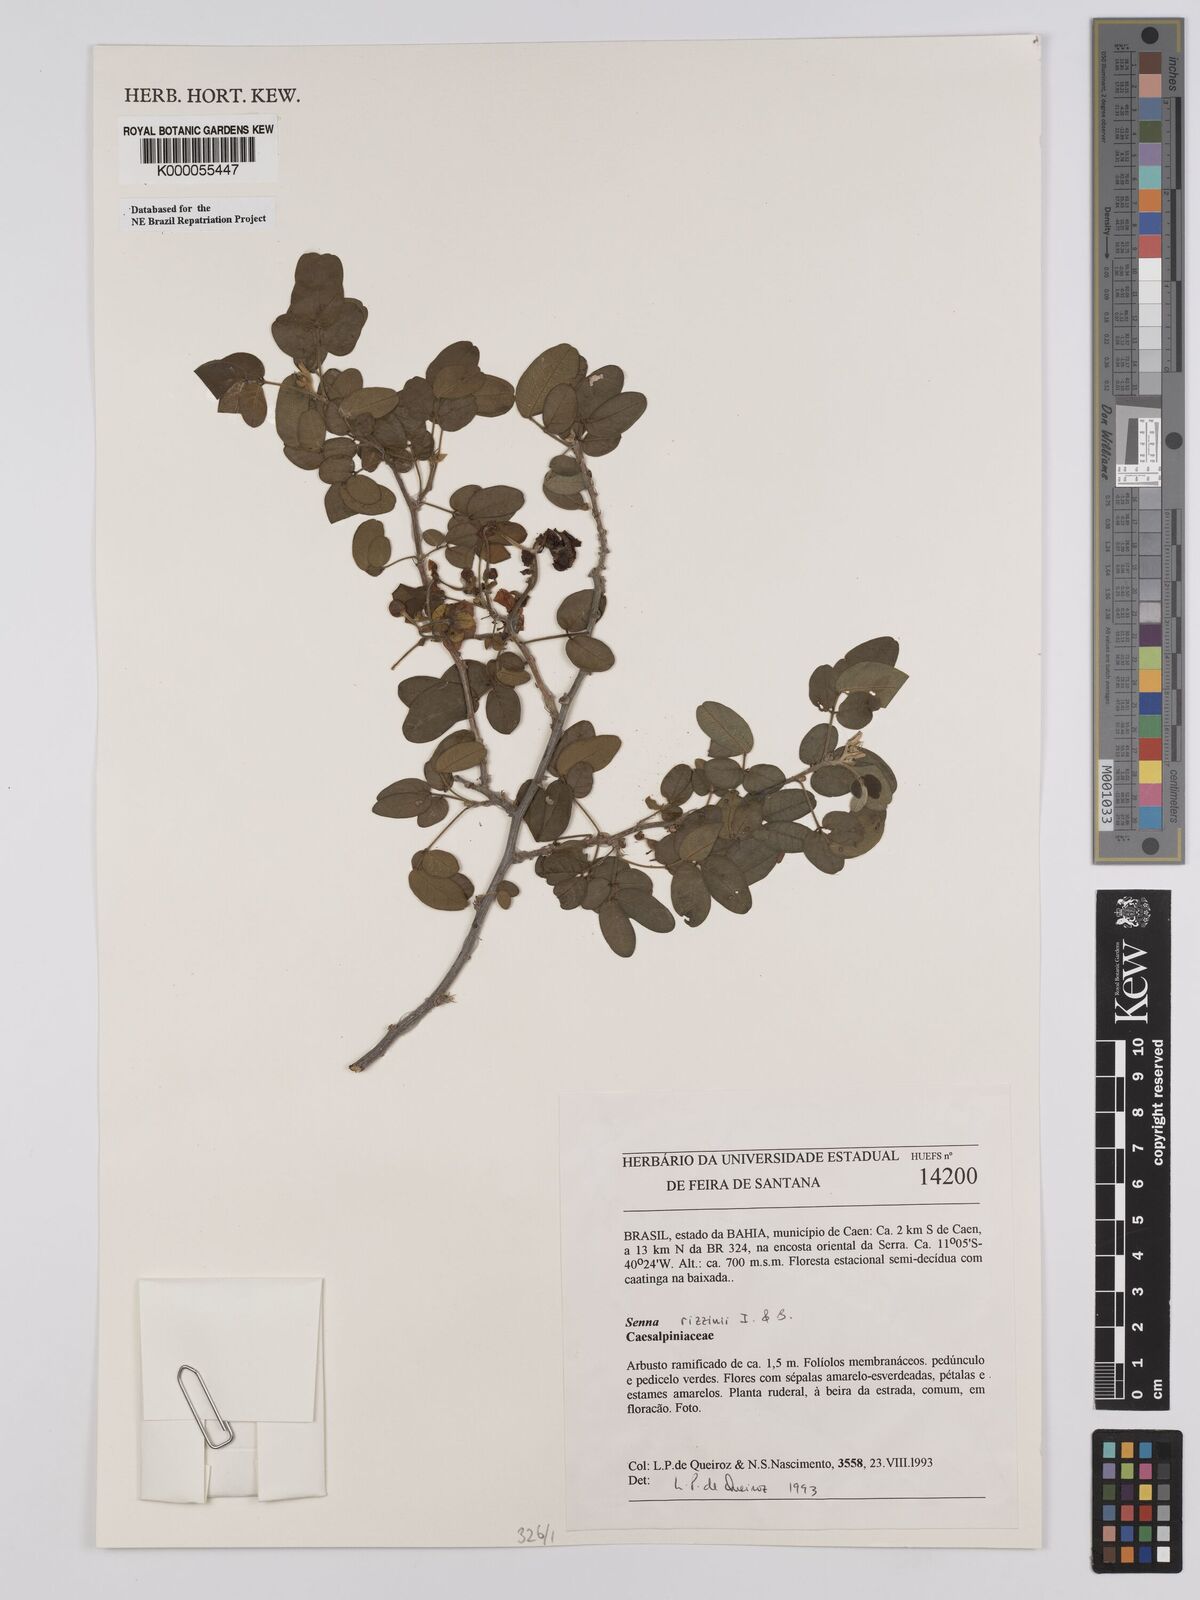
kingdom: Plantae
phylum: Tracheophyta
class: Magnoliopsida
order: Fabales
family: Fabaceae
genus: Senna
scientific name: Senna rizzinii
